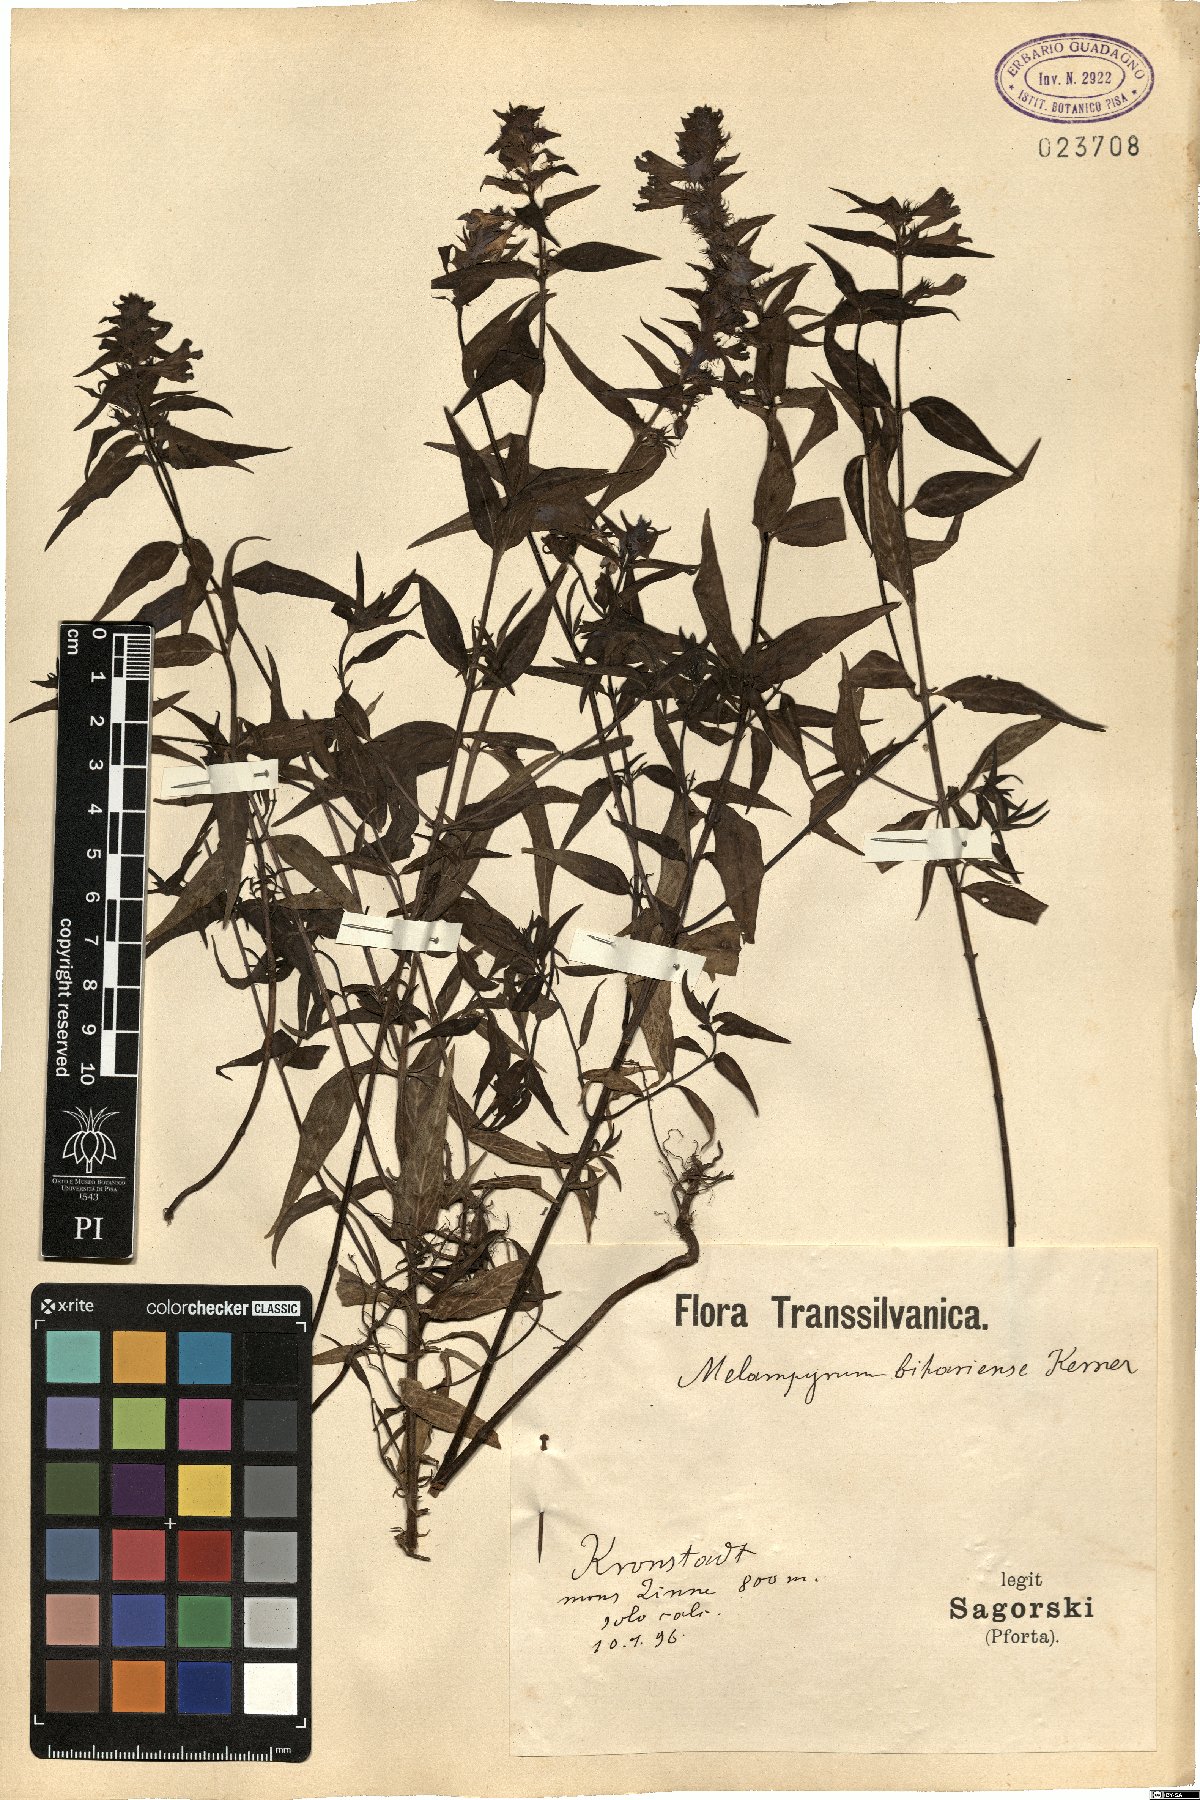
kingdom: Plantae
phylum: Tracheophyta
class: Magnoliopsida
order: Lamiales
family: Orobanchaceae
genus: Melampyrum
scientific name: Melampyrum bihariense
